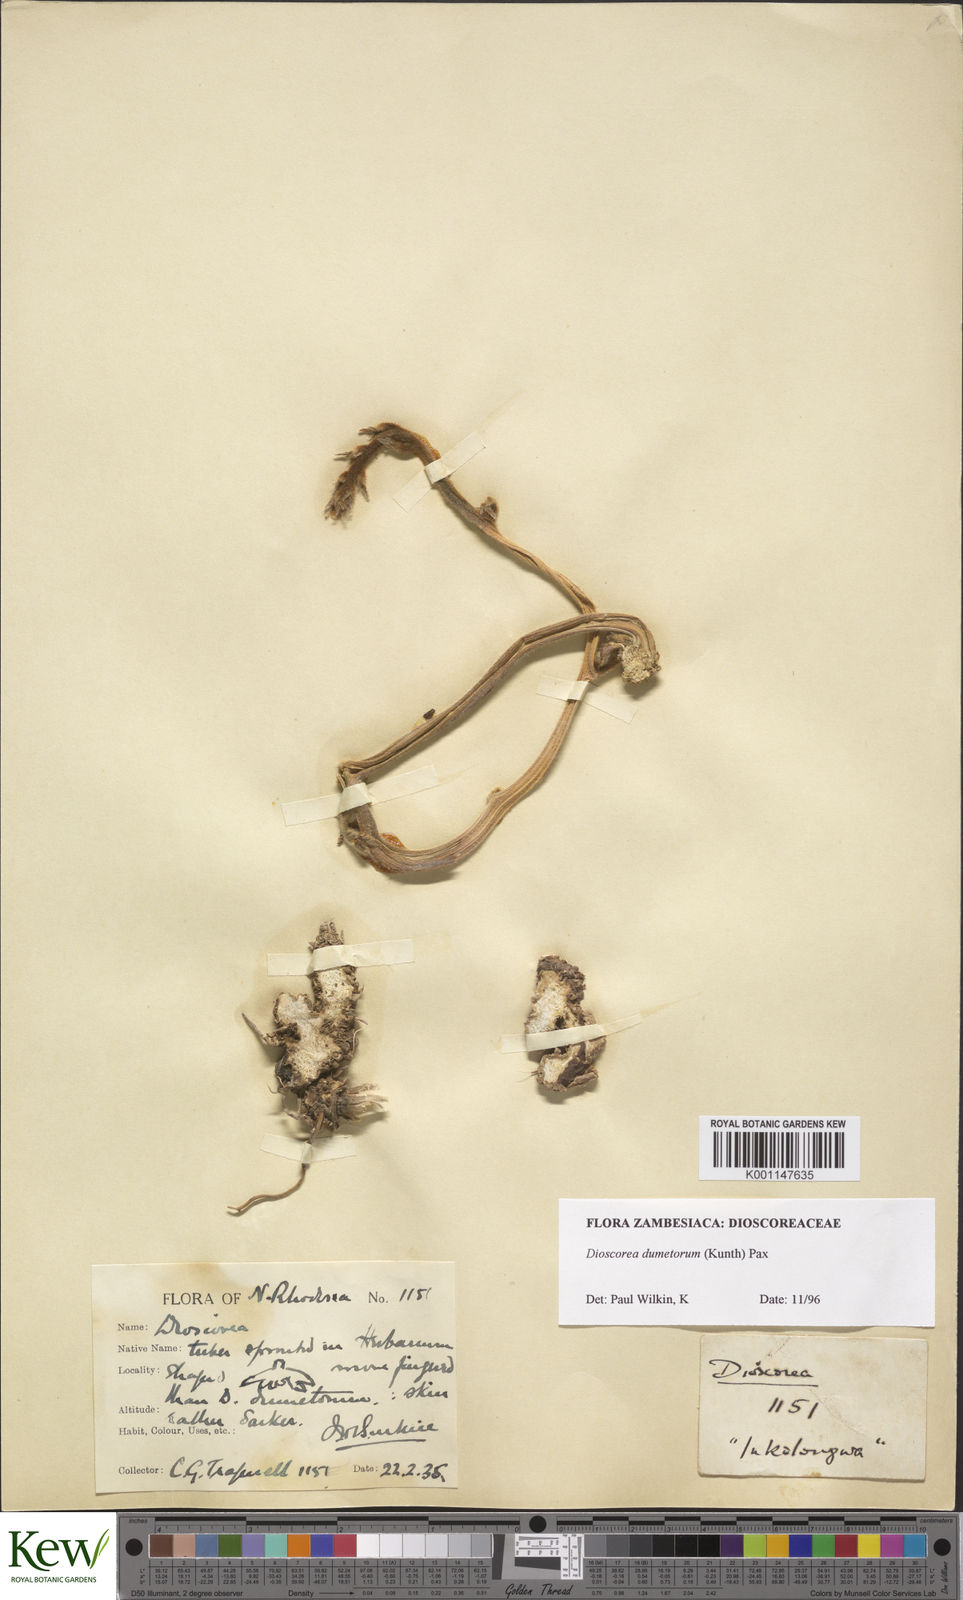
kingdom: Plantae
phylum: Tracheophyta
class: Liliopsida
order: Dioscoreales
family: Dioscoreaceae
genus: Dioscorea
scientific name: Dioscorea dumetorum
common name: African bitter yam
